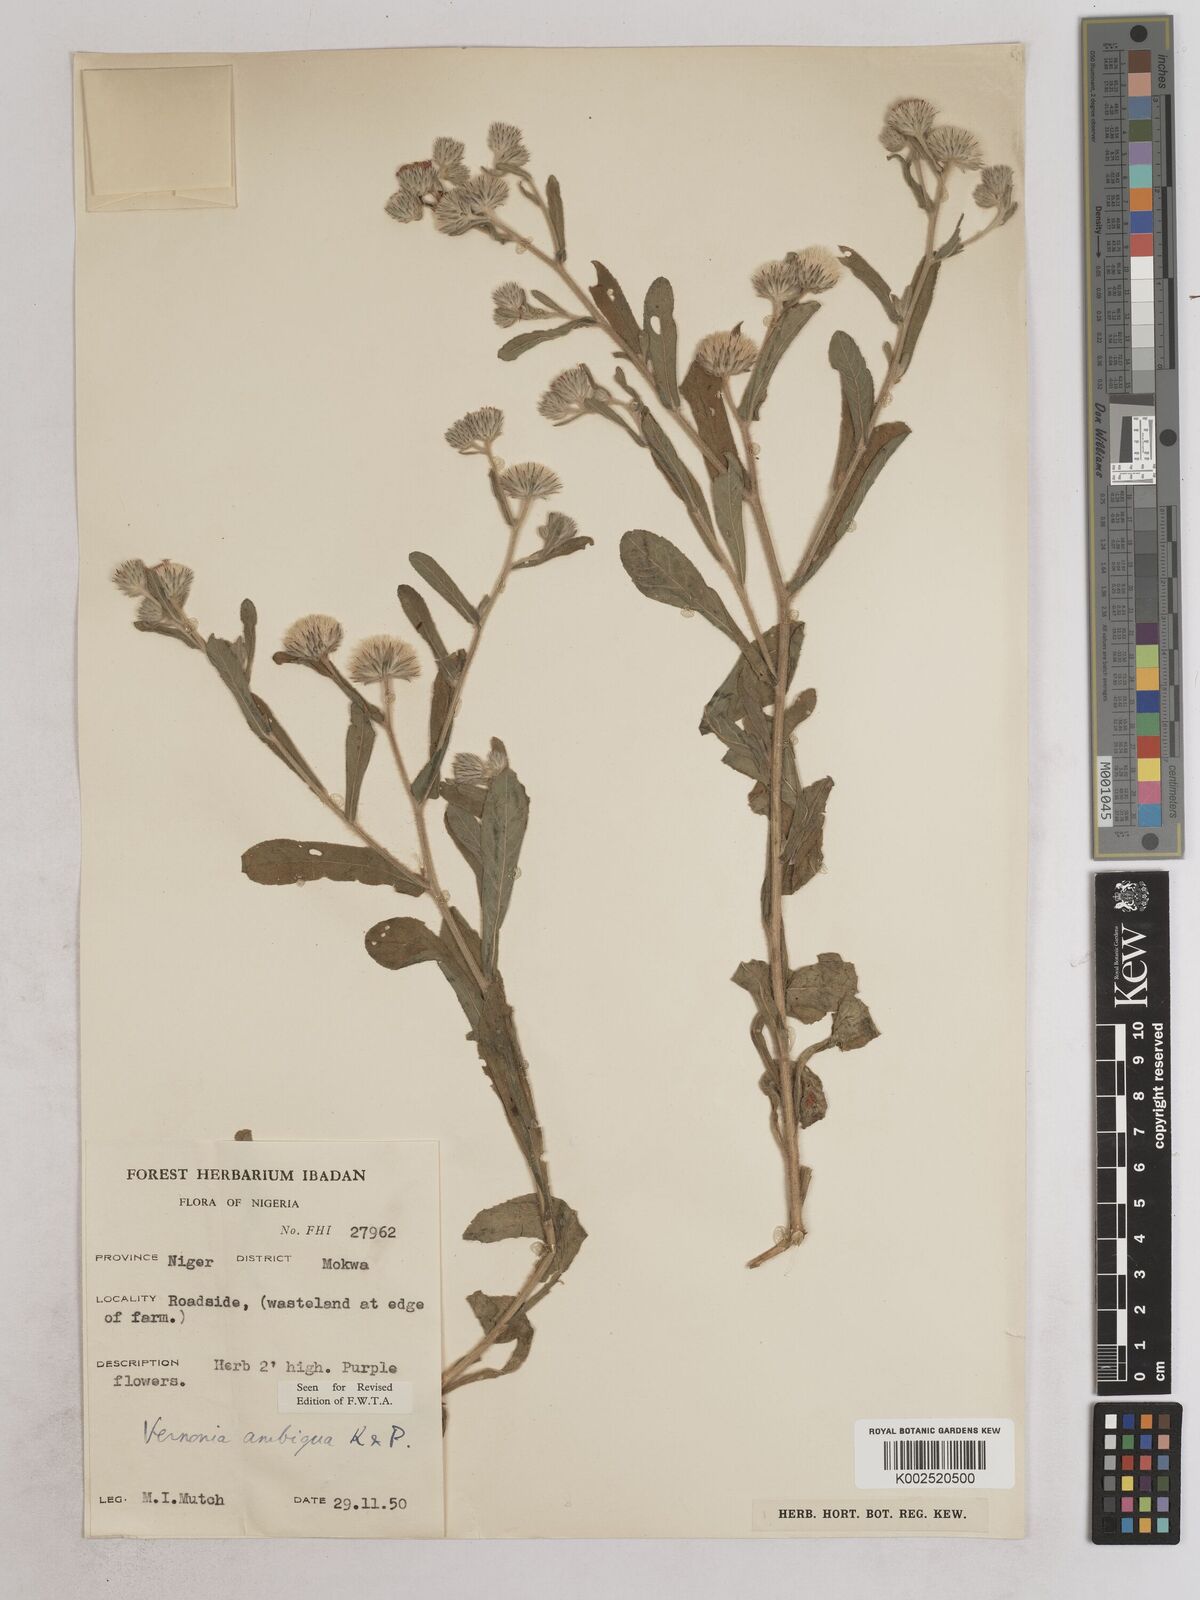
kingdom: Plantae
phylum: Tracheophyta
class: Magnoliopsida
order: Asterales
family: Asteraceae
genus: Vernoniastrum
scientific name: Vernoniastrum ambiguum
